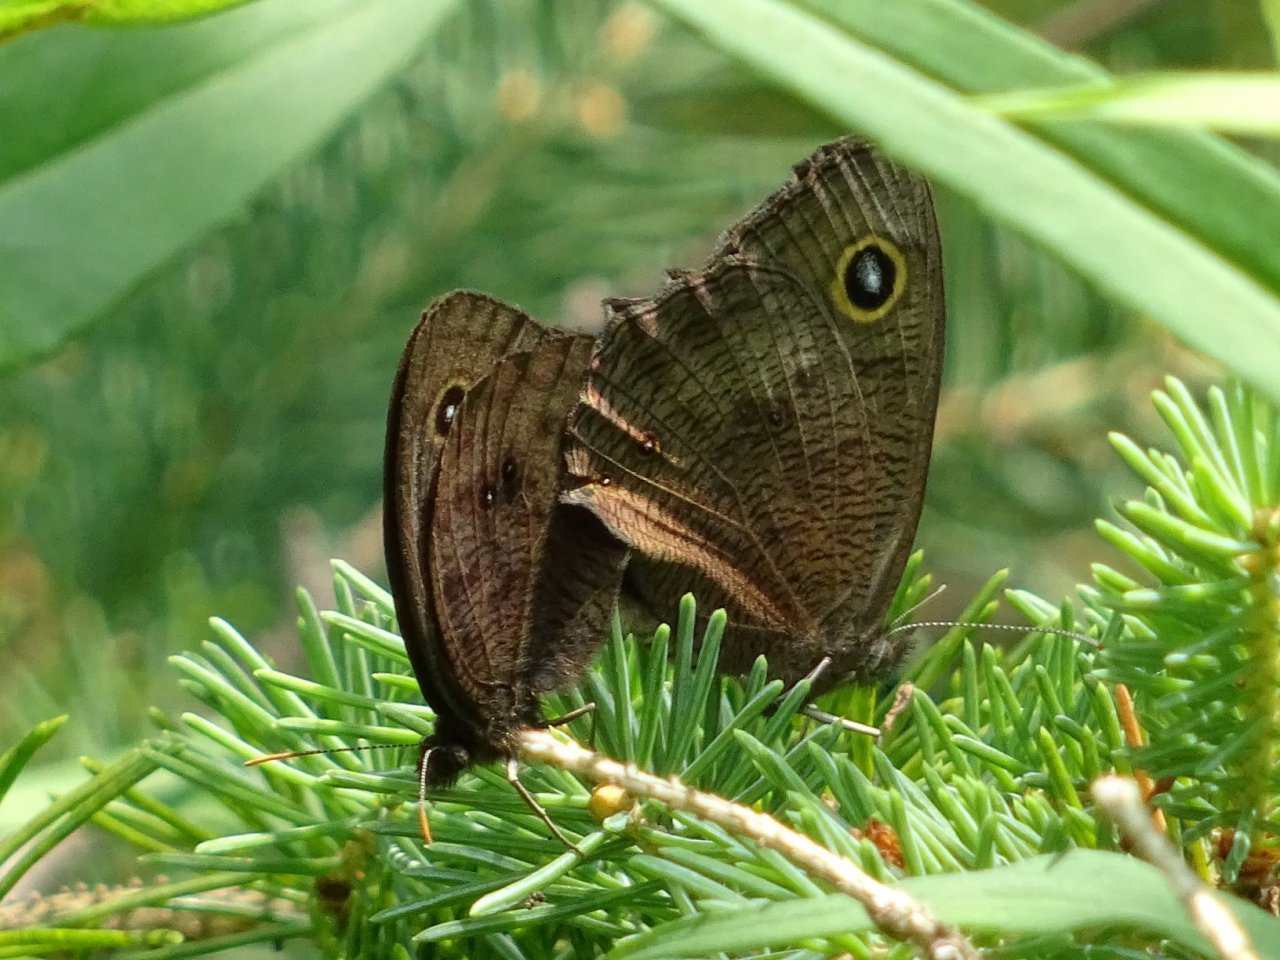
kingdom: Animalia
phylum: Arthropoda
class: Insecta
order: Lepidoptera
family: Nymphalidae
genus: Cercyonis
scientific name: Cercyonis pegala
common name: Common Wood-Nymph
